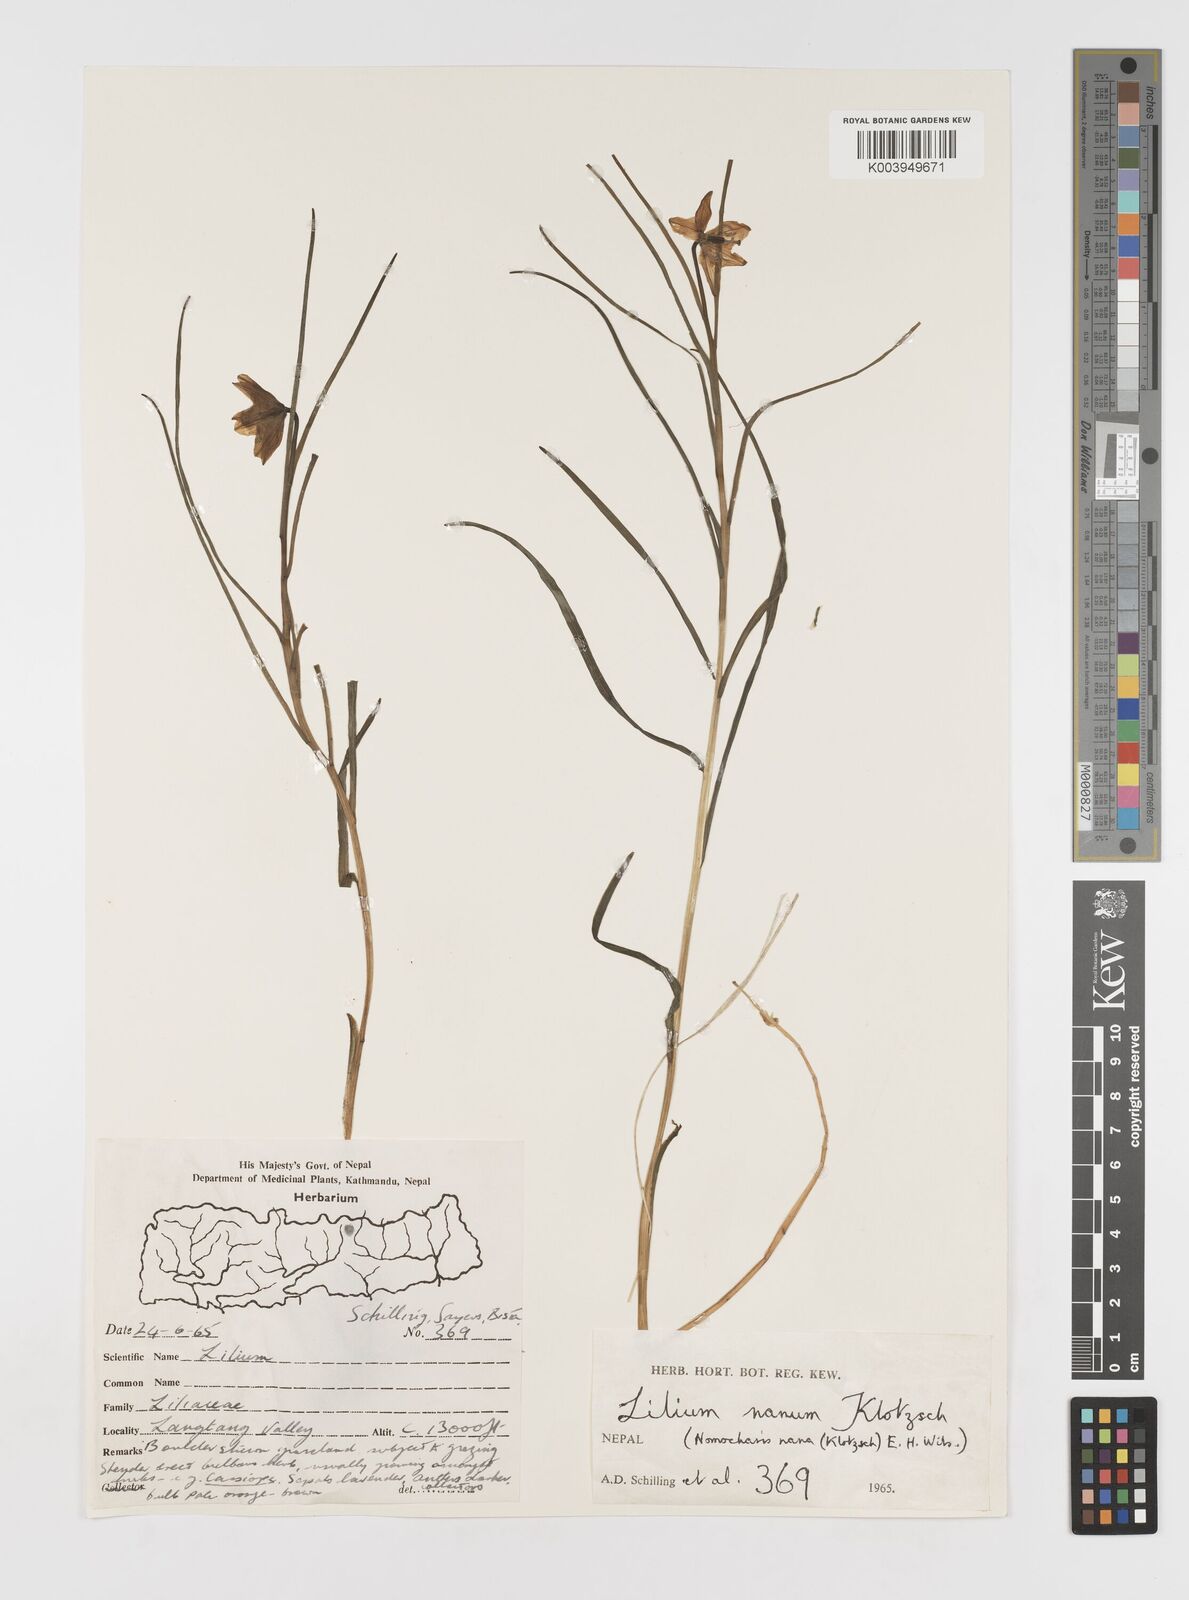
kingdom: Plantae
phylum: Tracheophyta
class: Liliopsida
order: Liliales
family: Liliaceae
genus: Lilium
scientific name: Lilium nanum
